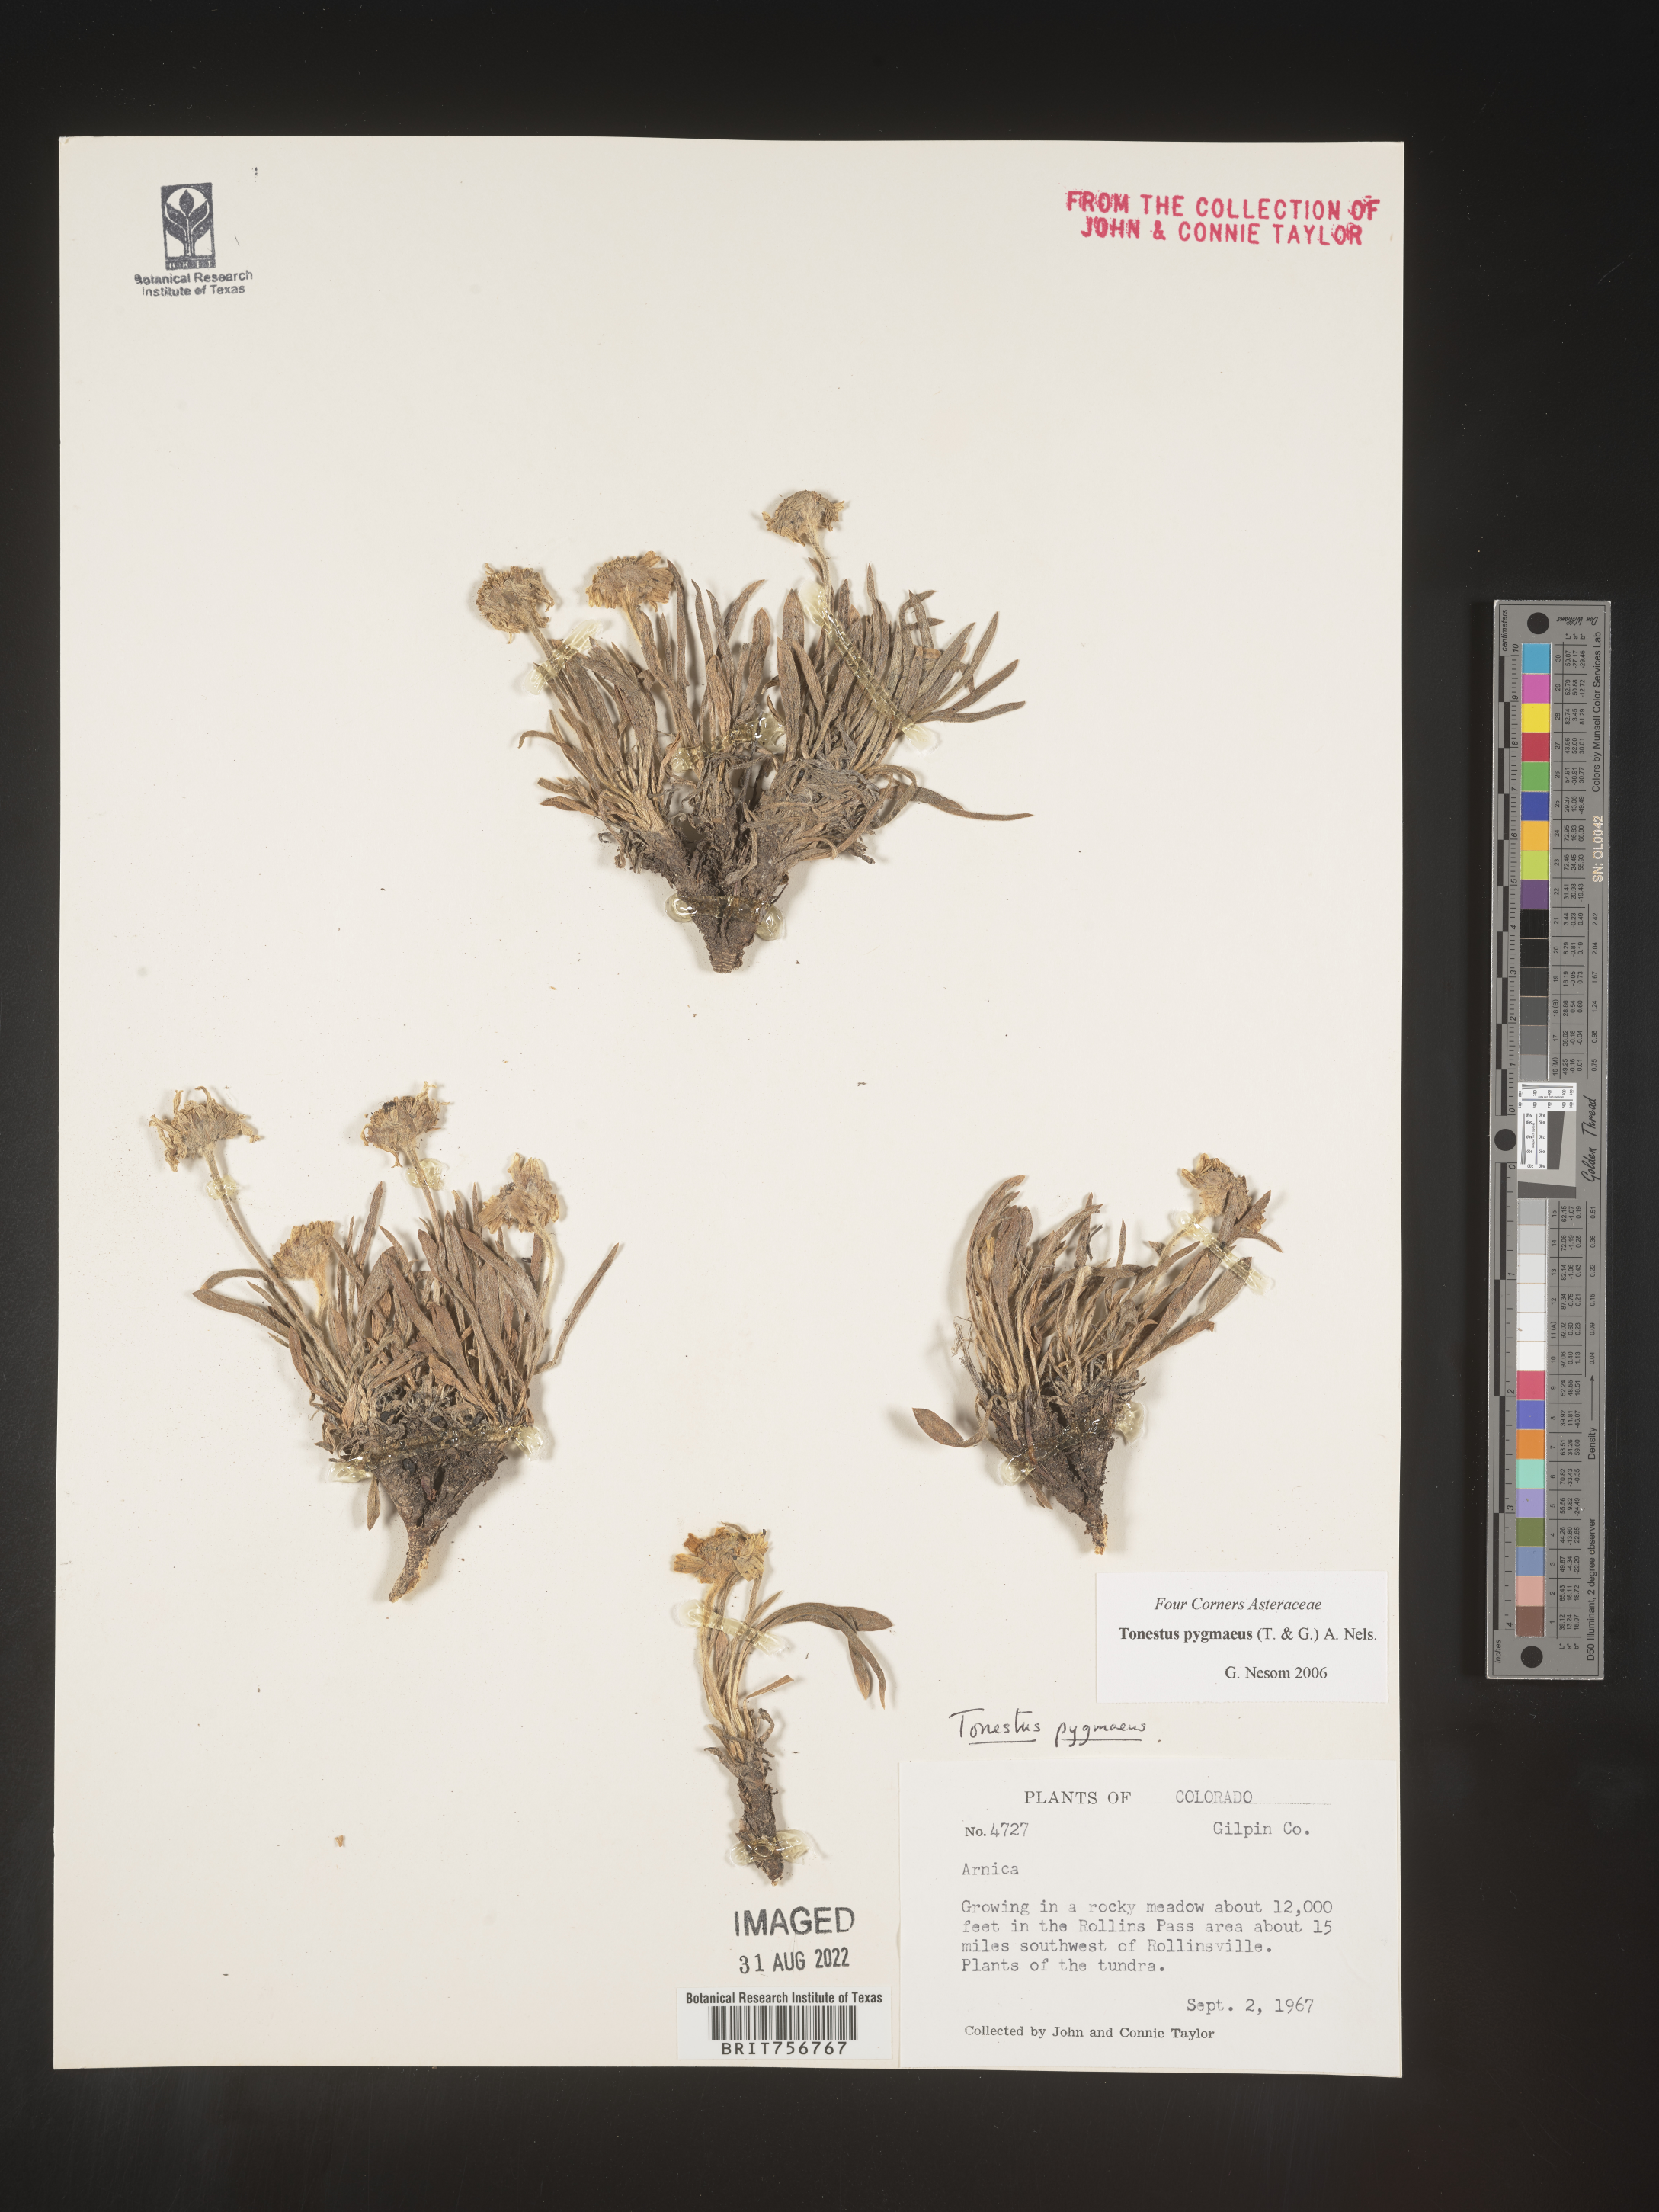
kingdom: Plantae
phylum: Tracheophyta
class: Magnoliopsida
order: Asterales
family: Asteraceae
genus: Tonestus
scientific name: Tonestus
